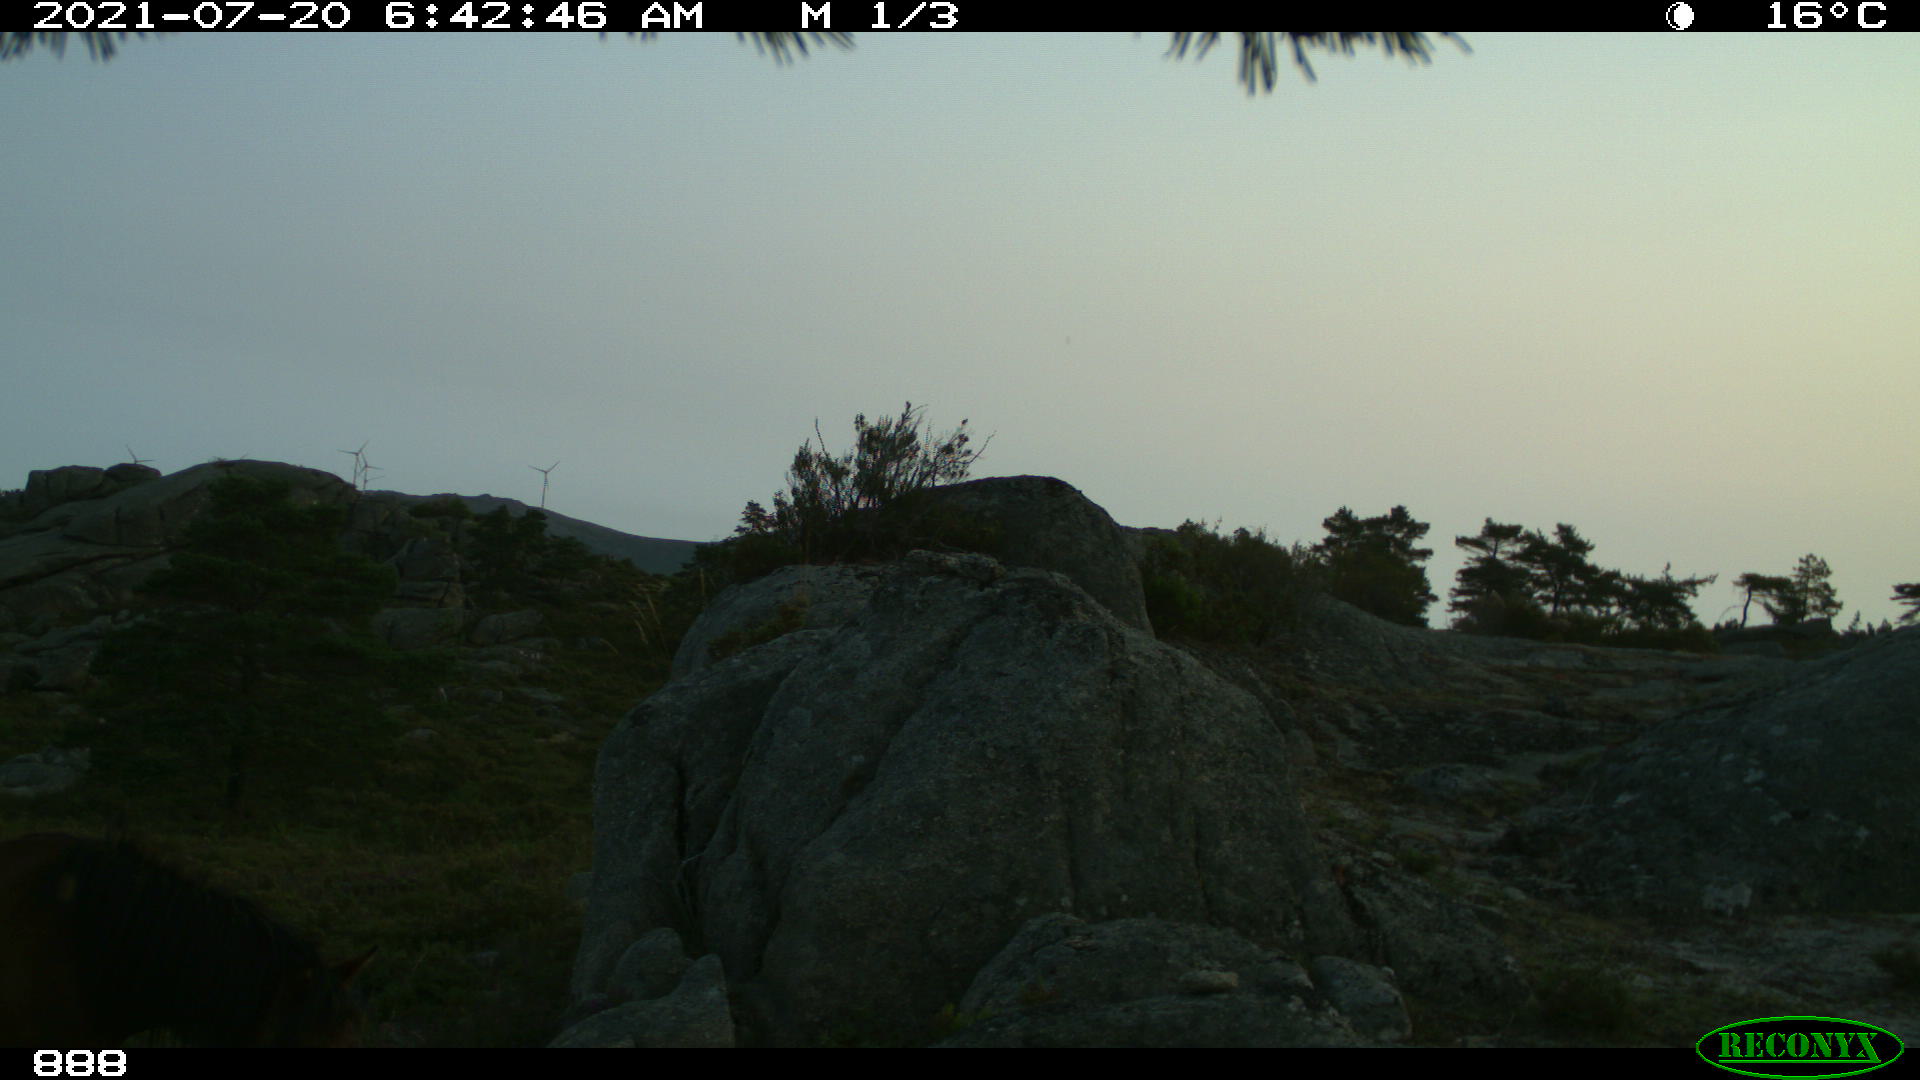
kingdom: Animalia
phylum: Chordata
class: Mammalia
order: Perissodactyla
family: Equidae
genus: Equus
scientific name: Equus caballus
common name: Horse
